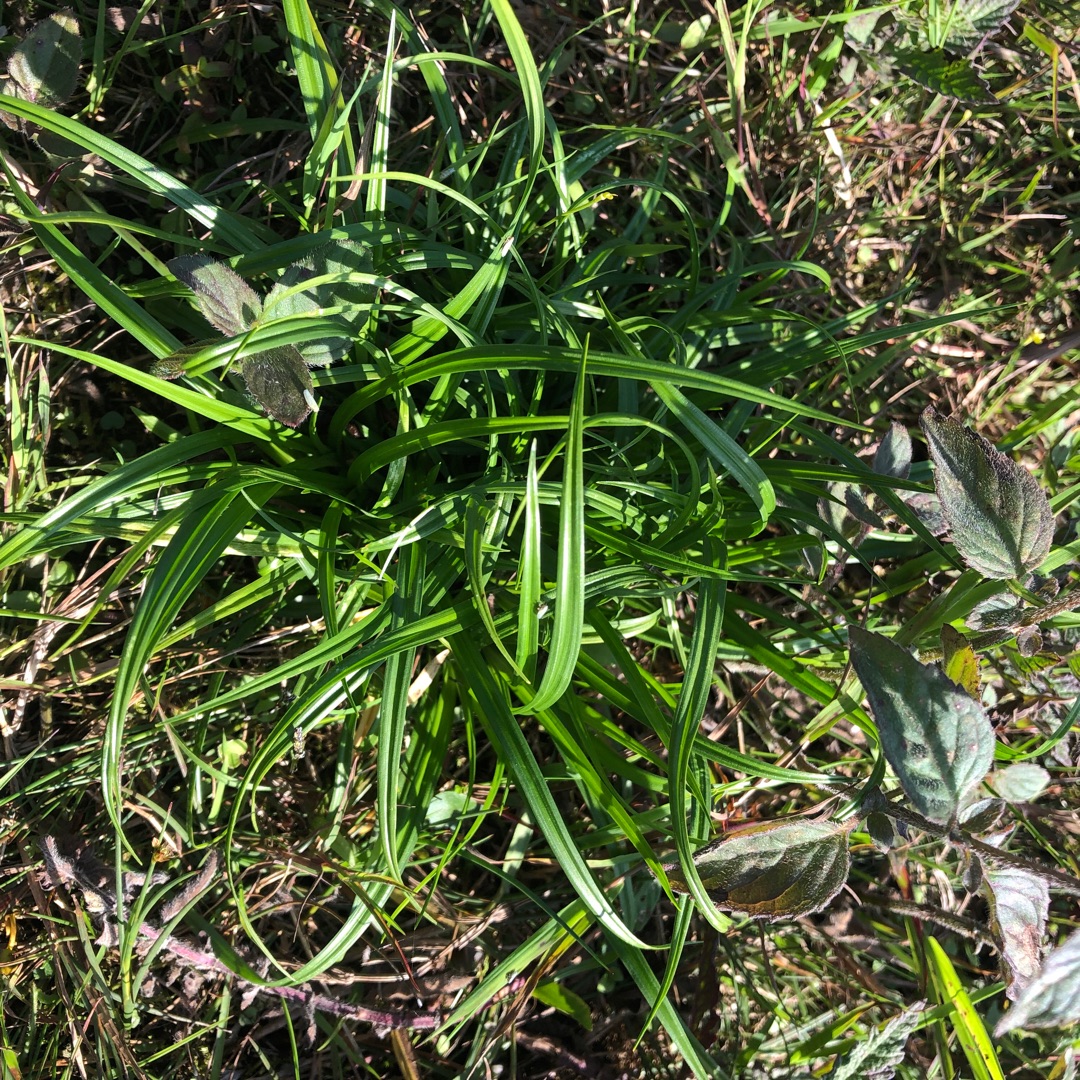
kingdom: Plantae
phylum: Tracheophyta
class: Liliopsida
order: Poales
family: Cyperaceae
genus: Carex
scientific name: Carex
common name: Starslægten
